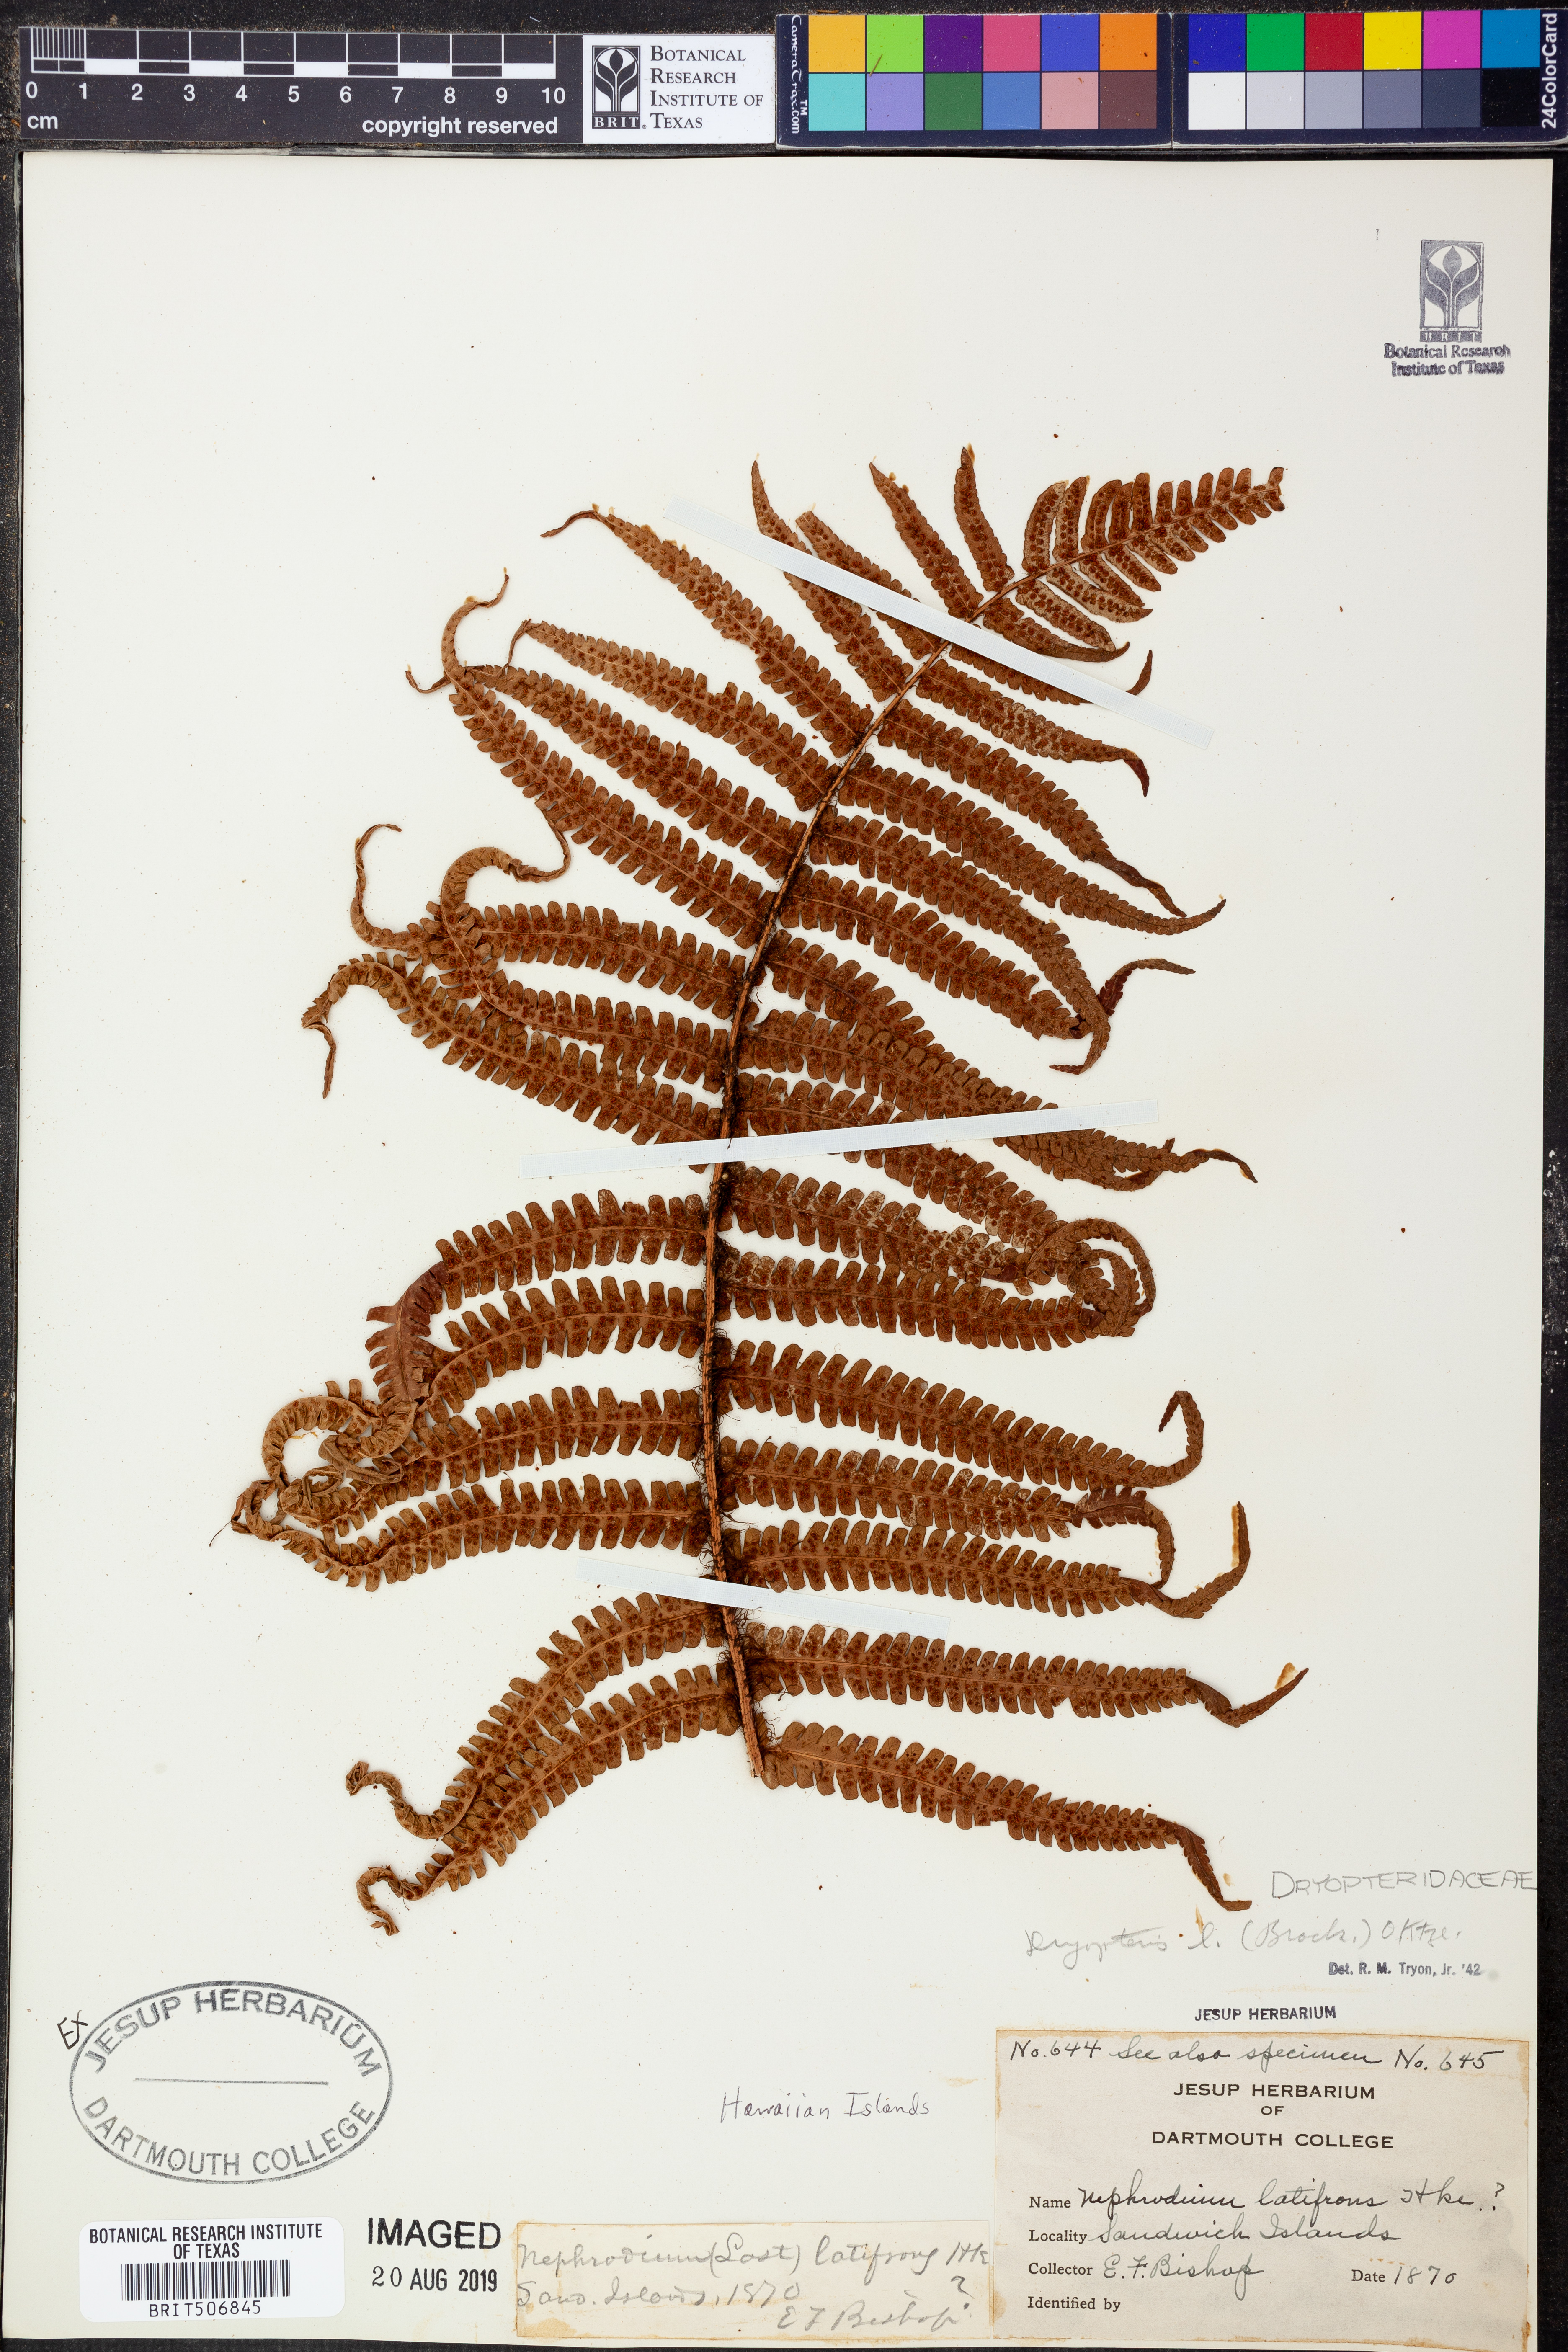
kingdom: Plantae
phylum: Tracheophyta
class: Polypodiopsida
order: Polypodiales
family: Dryopteridaceae
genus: Ctenitis
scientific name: Ctenitis latifrons
